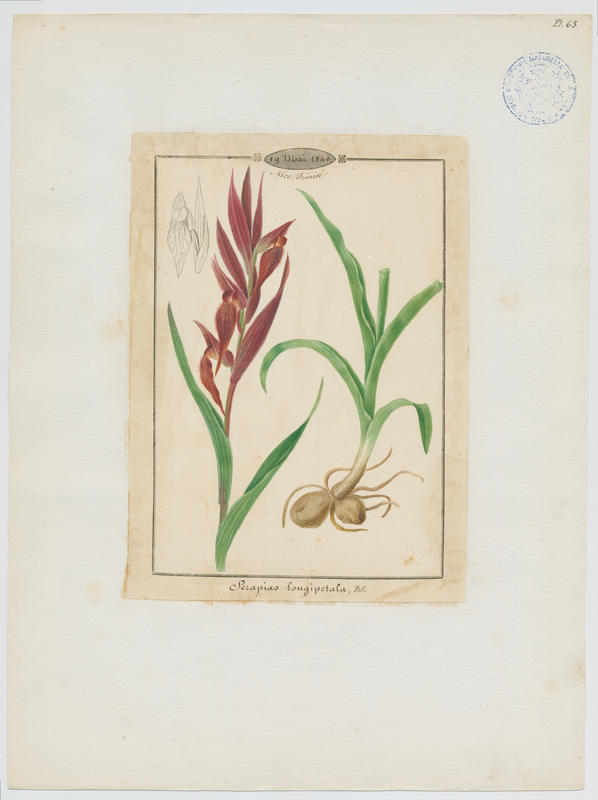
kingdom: Plantae
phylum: Tracheophyta
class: Liliopsida
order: Asparagales
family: Orchidaceae
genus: Serapias
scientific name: Serapias vomeracea
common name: Long-lipped tongue-orchid
